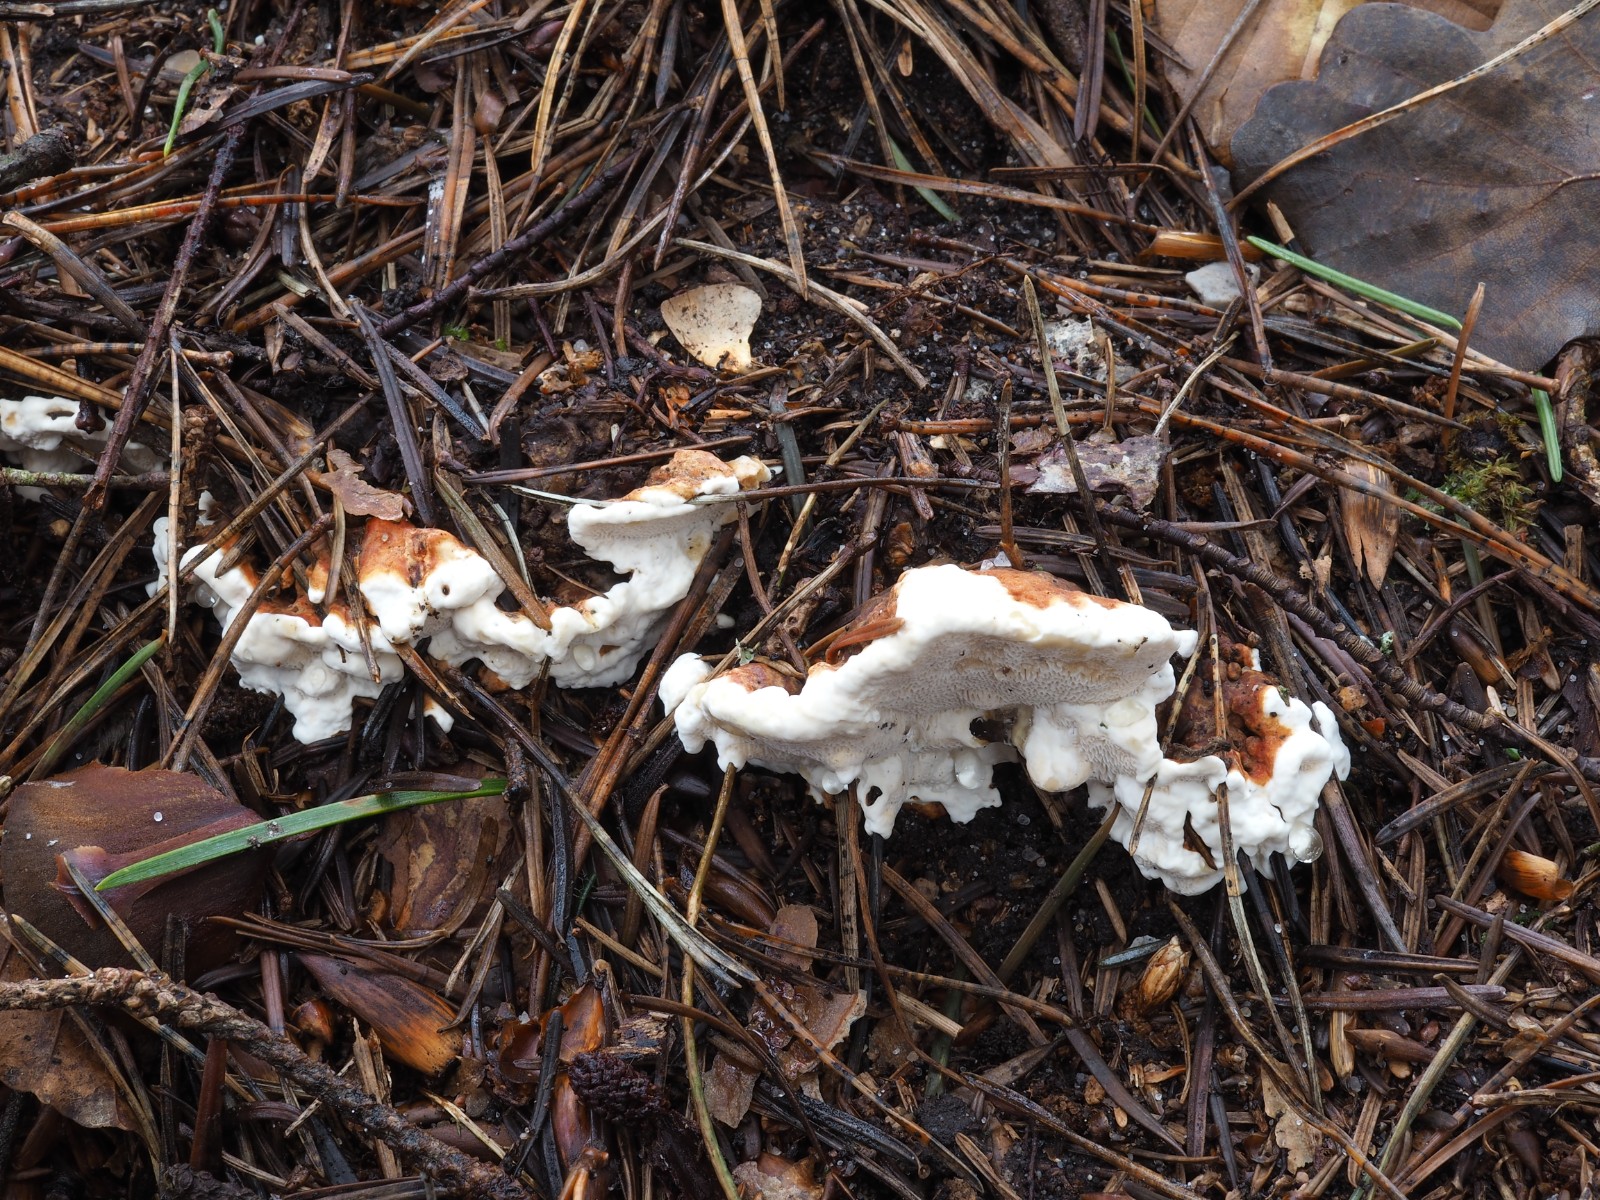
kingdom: Fungi
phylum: Basidiomycota
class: Agaricomycetes
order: Russulales
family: Bondarzewiaceae
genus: Heterobasidion
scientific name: Heterobasidion annosum
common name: almindelig rodfordærver
